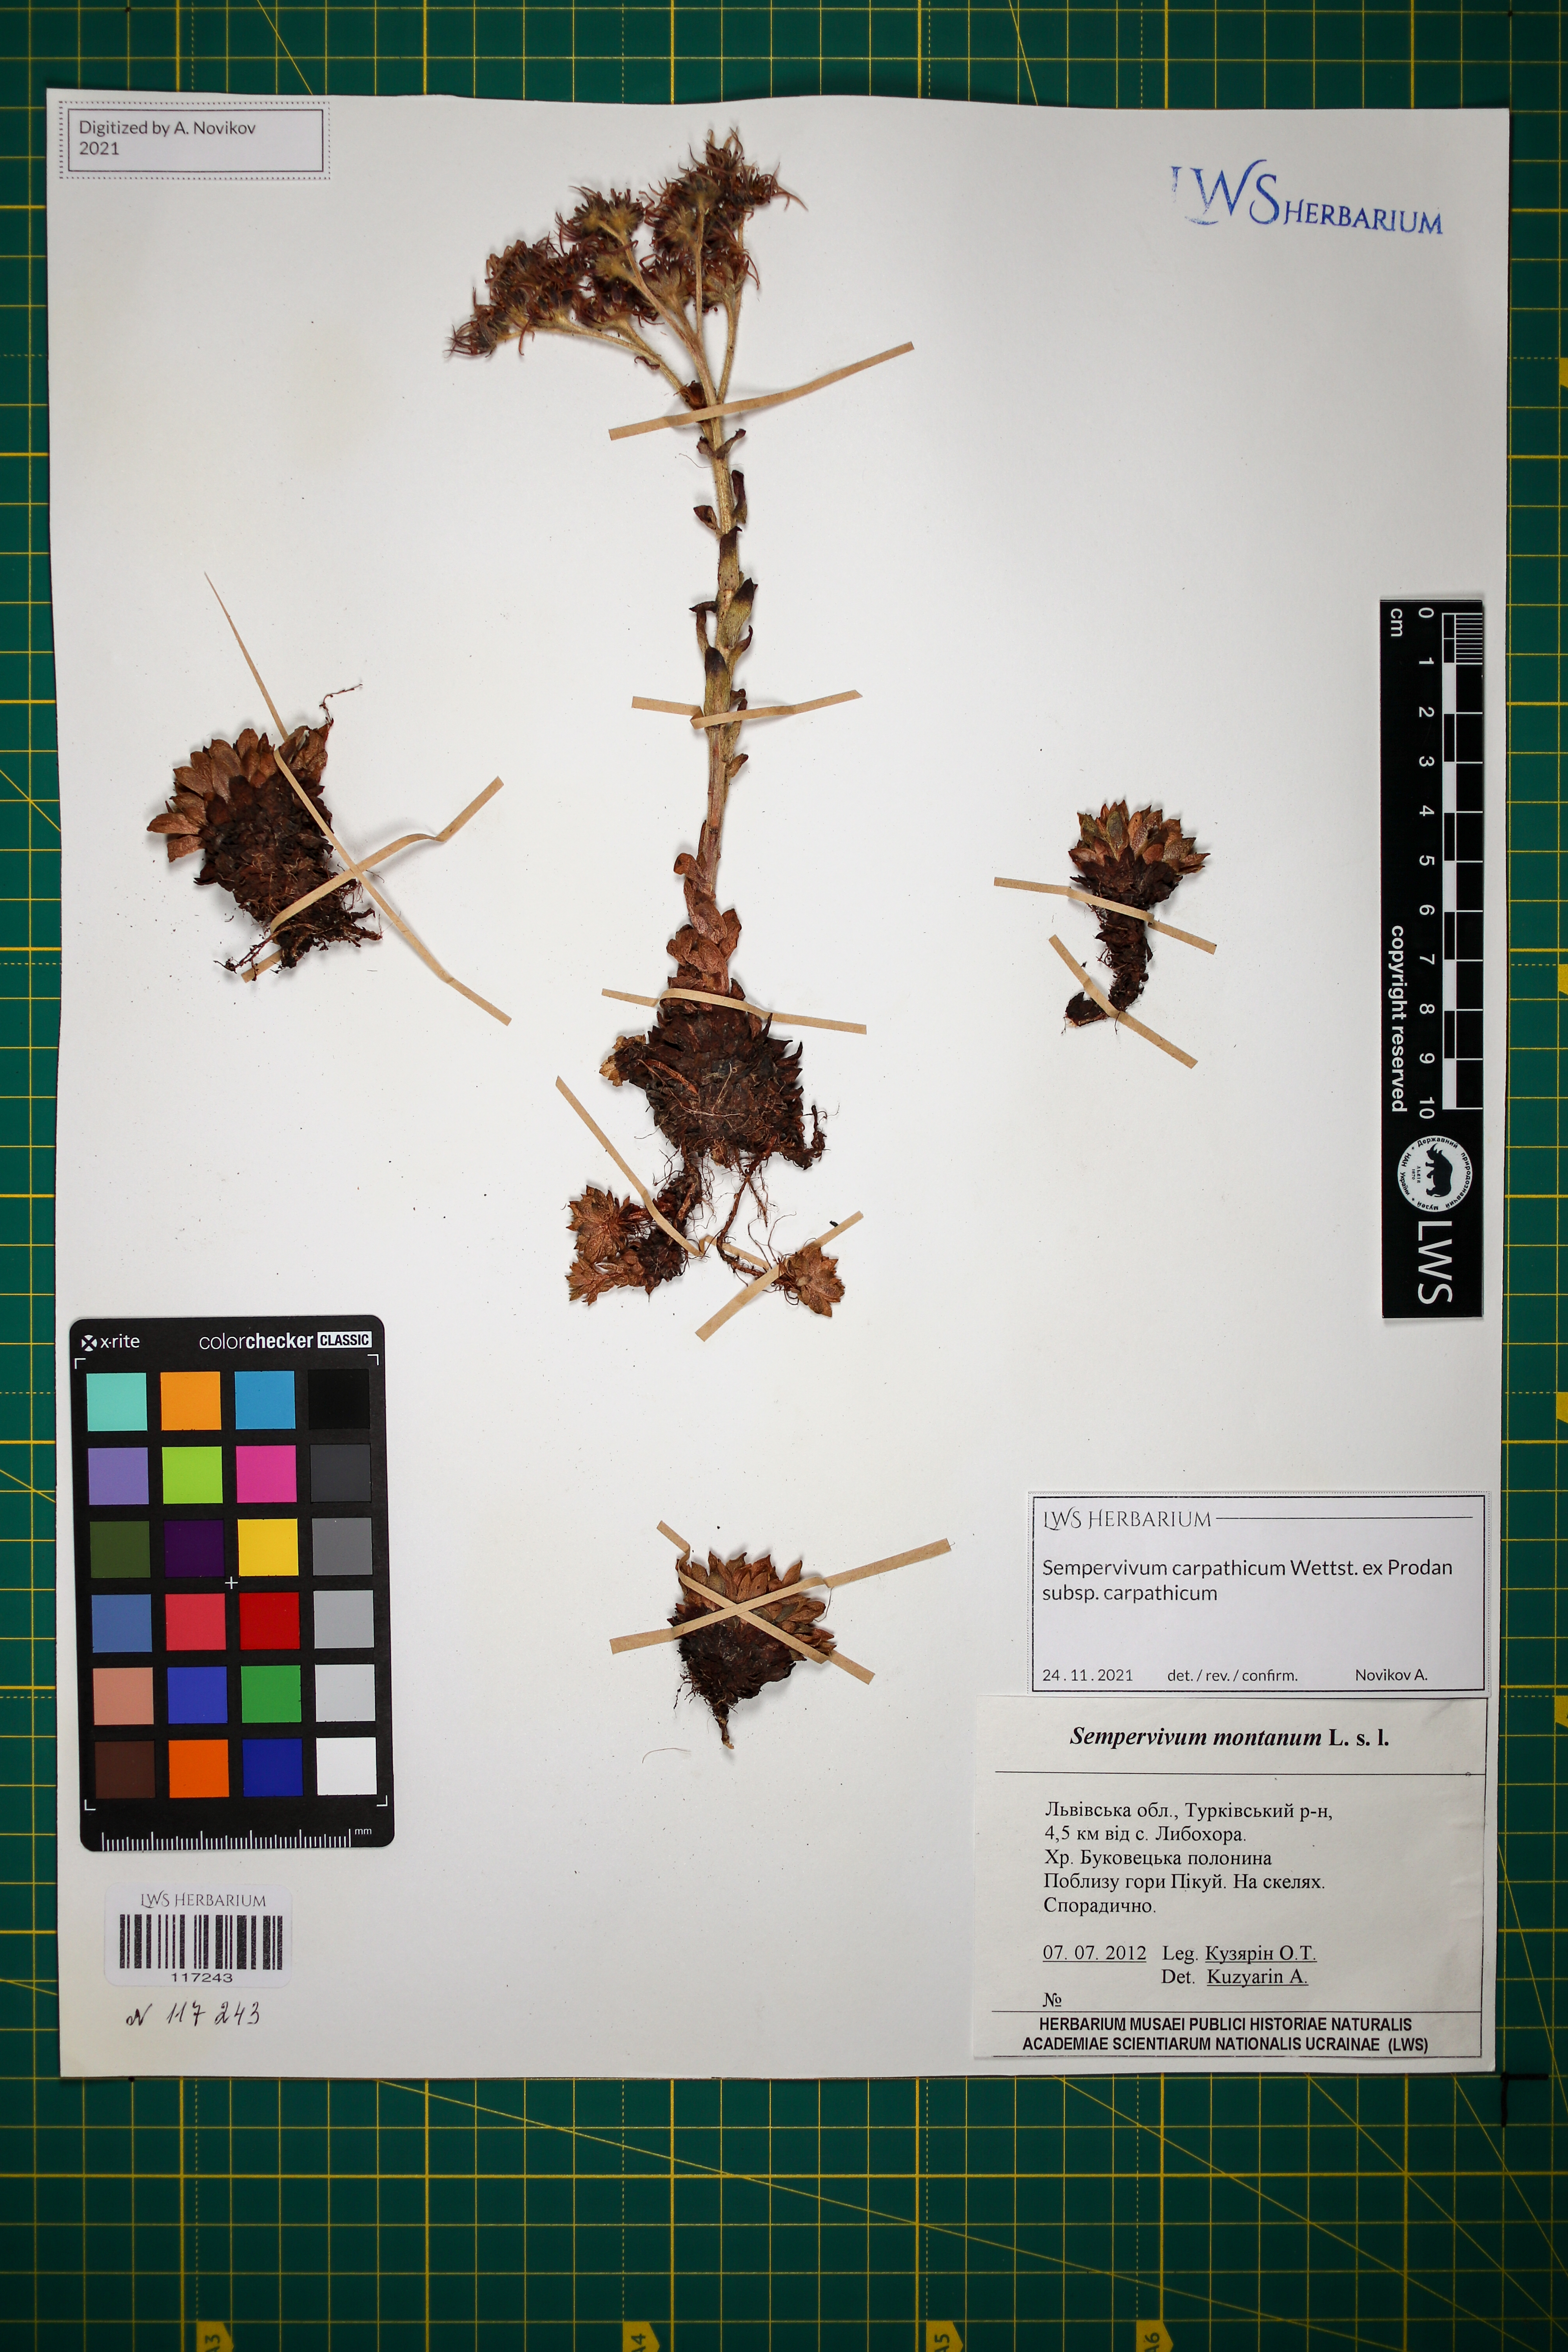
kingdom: Plantae
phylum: Tracheophyta
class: Magnoliopsida
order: Saxifragales
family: Crassulaceae
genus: Sempervivum
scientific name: Sempervivum montanum
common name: Mountain house-leek
